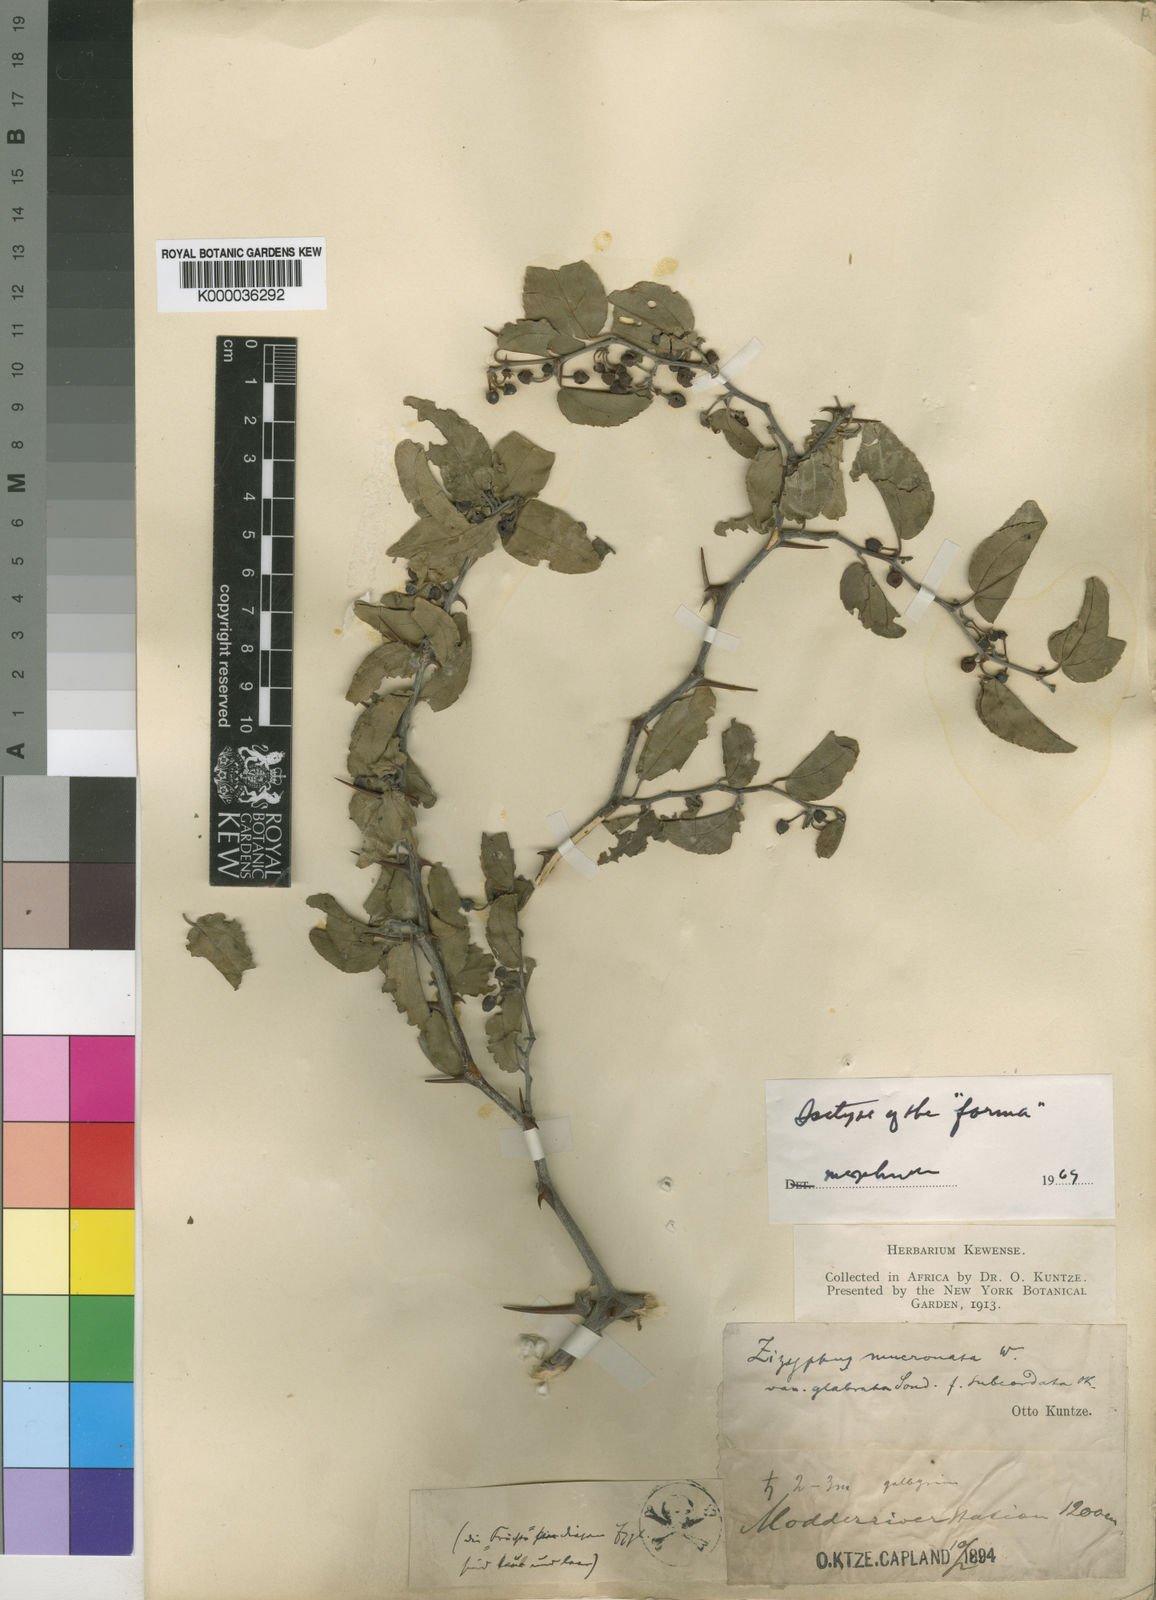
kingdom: Plantae
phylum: Tracheophyta
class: Magnoliopsida
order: Rosales
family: Rhamnaceae
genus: Ziziphus
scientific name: Ziziphus mucronata
